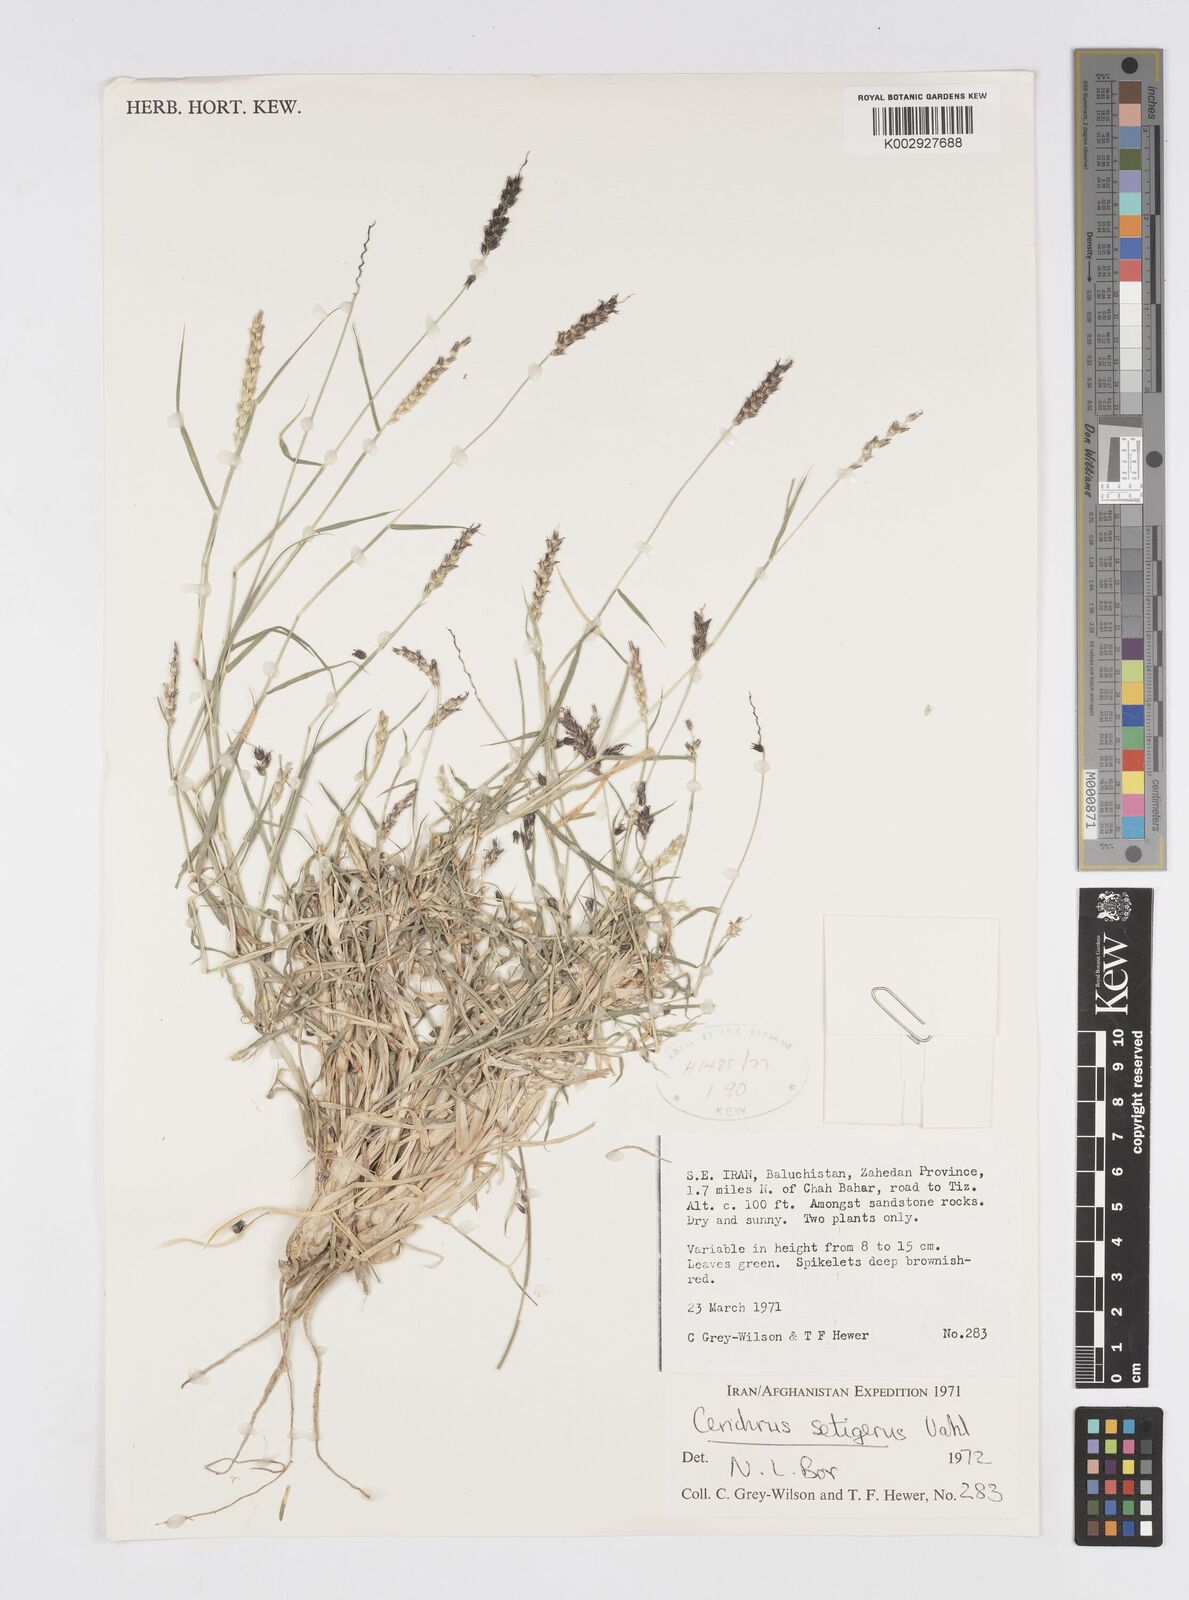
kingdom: Plantae
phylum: Tracheophyta
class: Liliopsida
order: Poales
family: Poaceae
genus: Cenchrus
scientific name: Cenchrus setigerus
